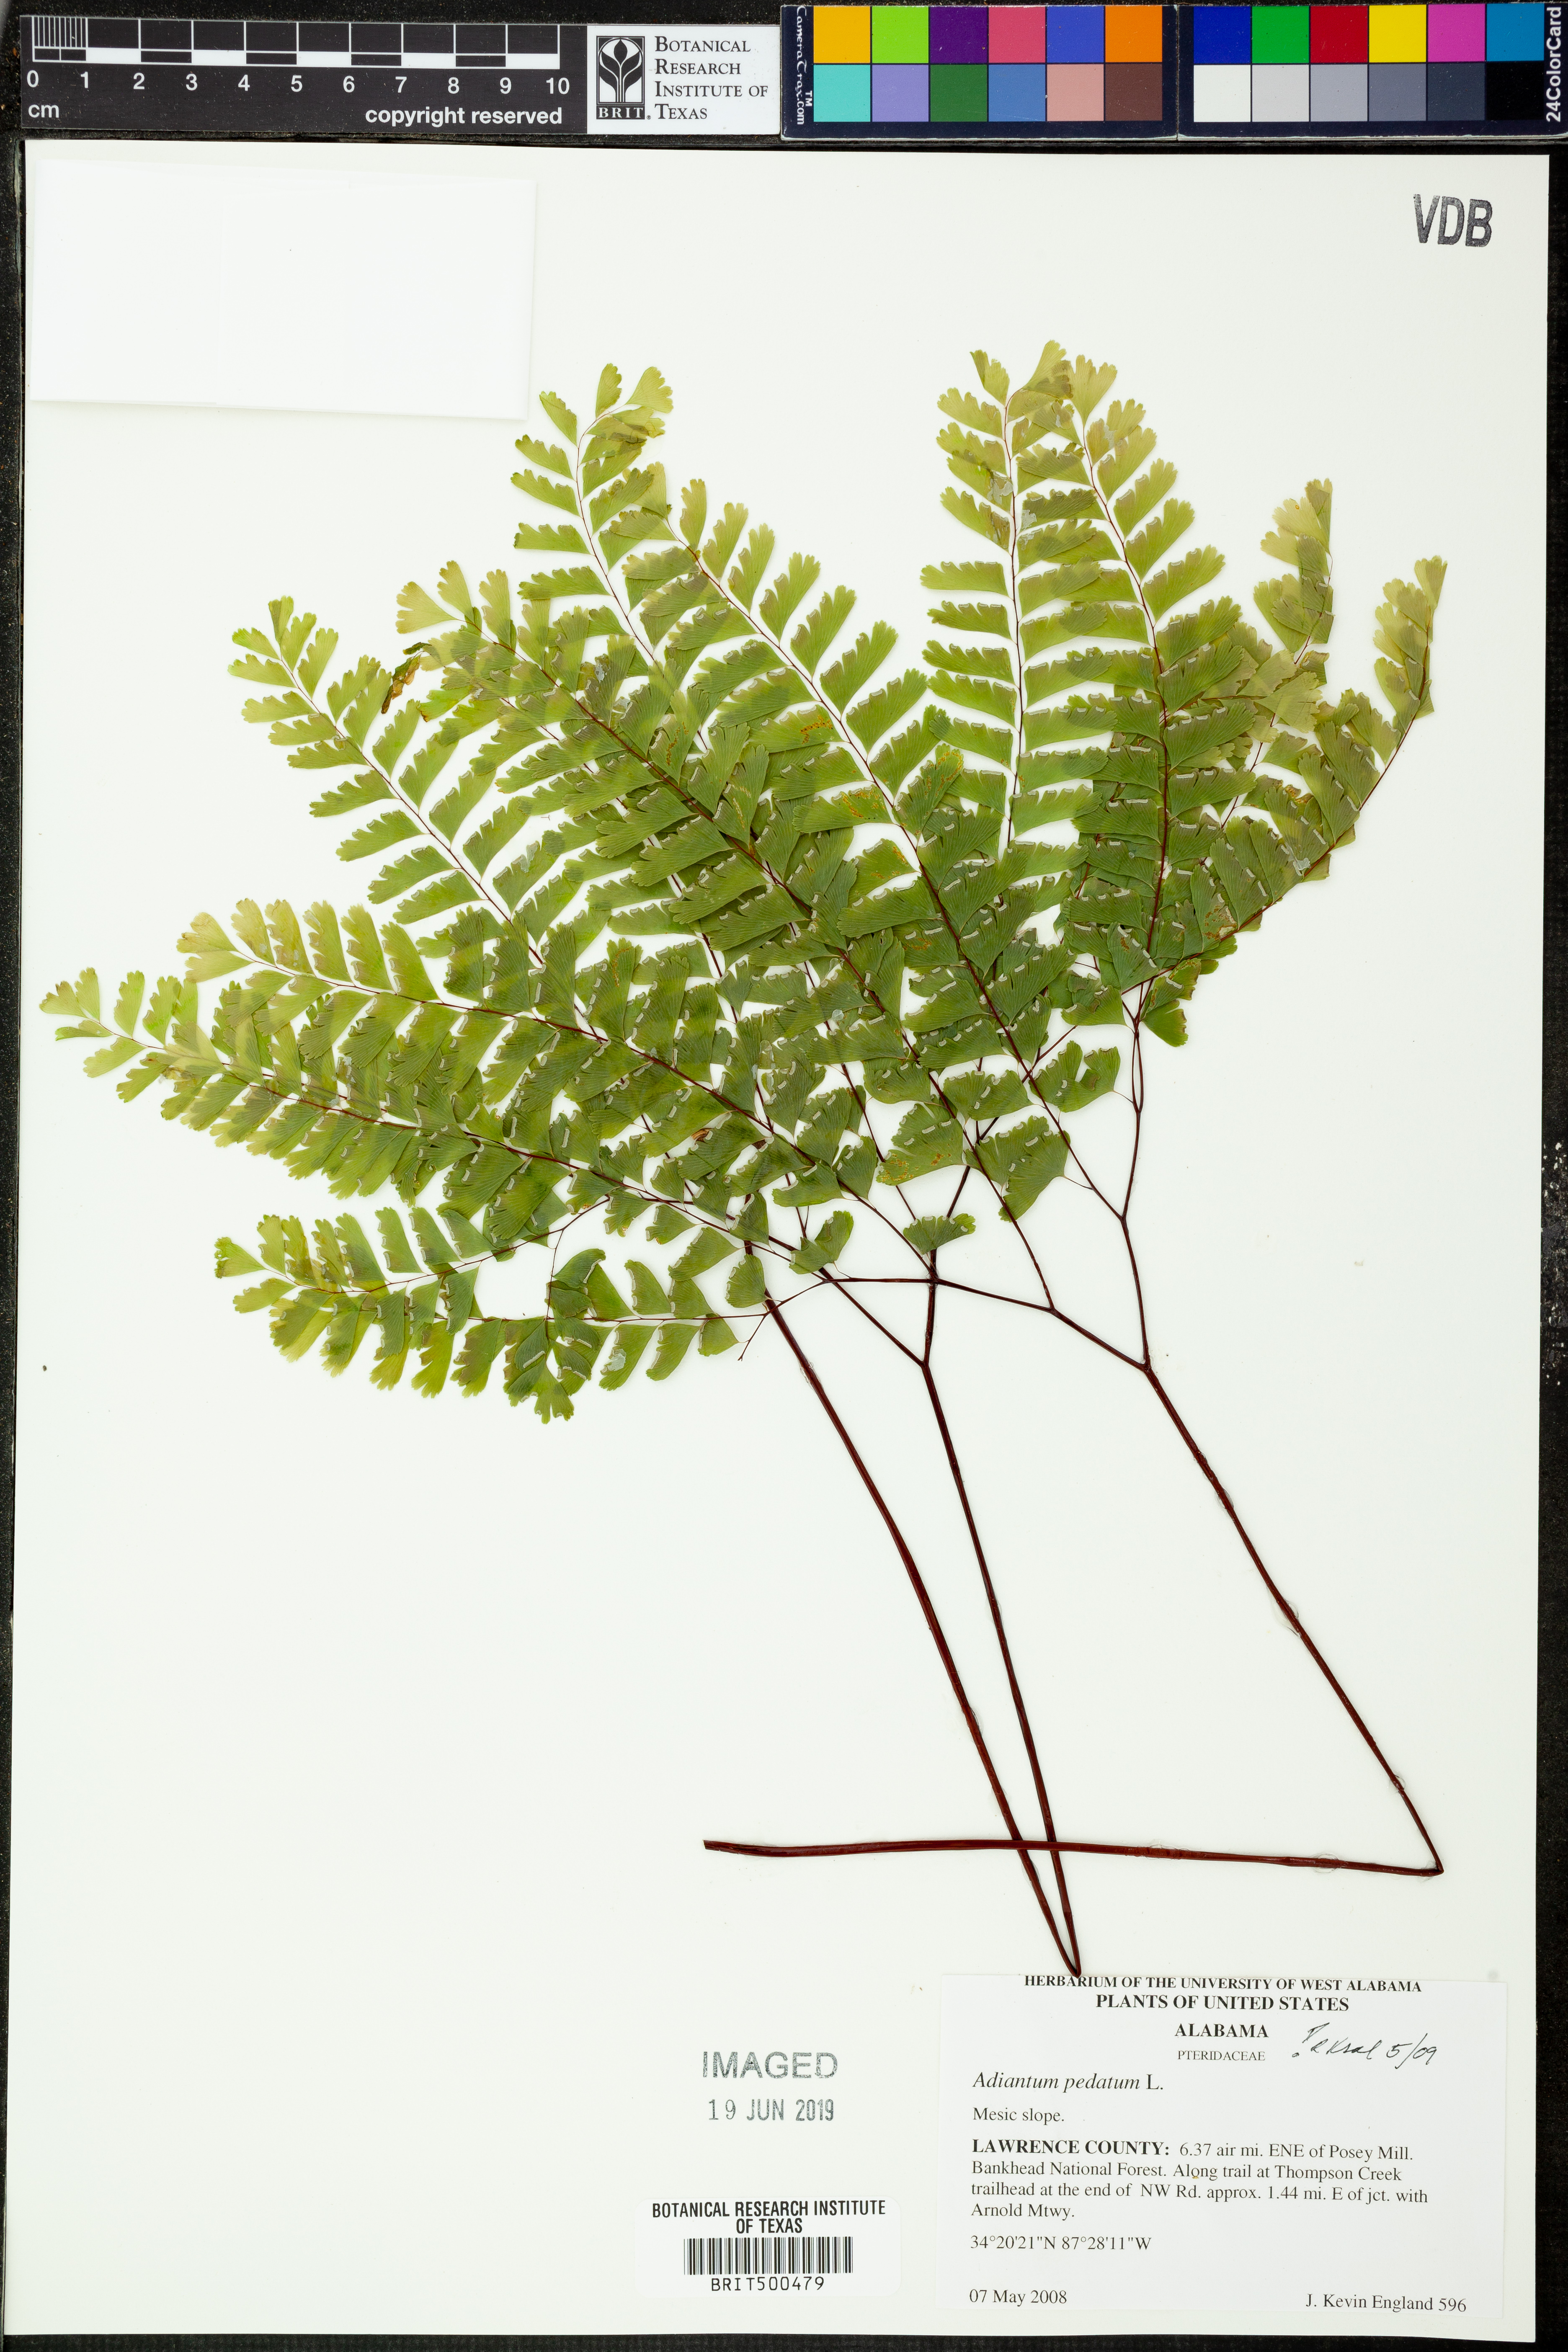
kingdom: Plantae
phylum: Tracheophyta
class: Polypodiopsida
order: Polypodiales
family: Pteridaceae
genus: Adiantum
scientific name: Adiantum pedatum
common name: Five-finger fern
